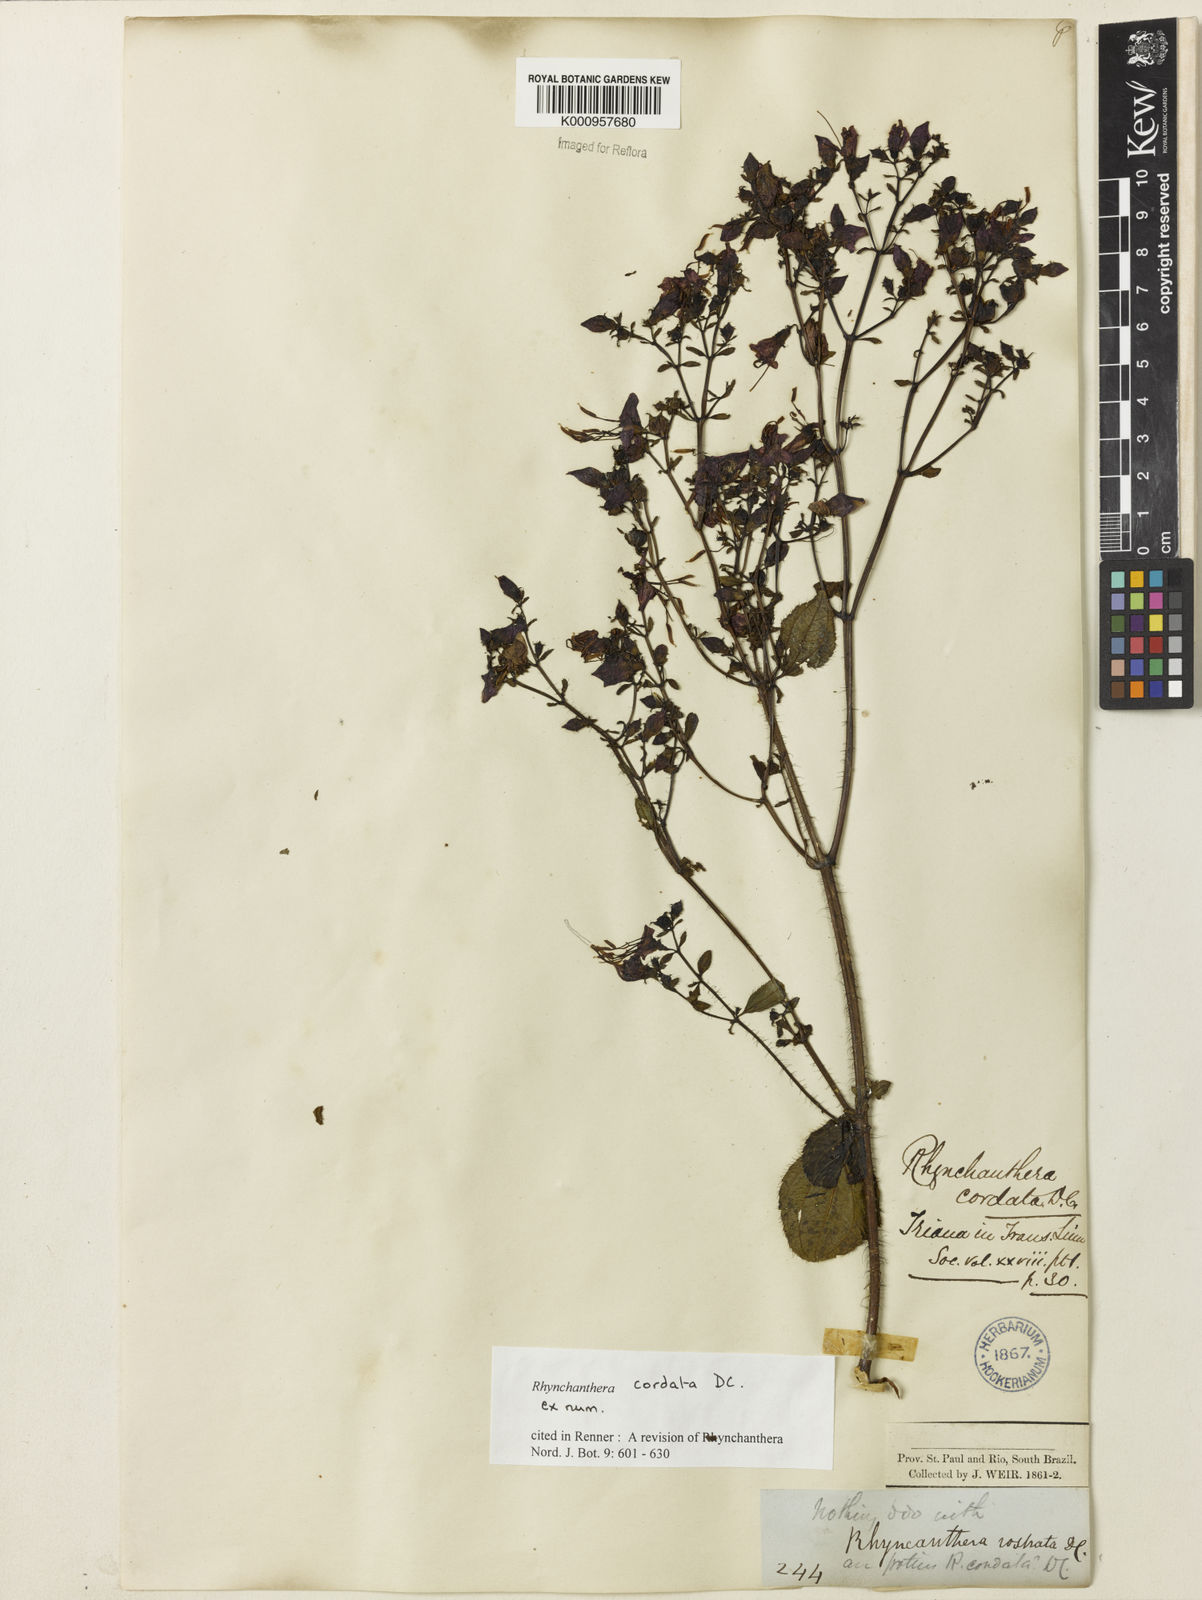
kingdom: Plantae
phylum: Tracheophyta
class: Magnoliopsida
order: Myrtales
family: Melastomataceae
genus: Rhynchanthera
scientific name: Rhynchanthera cordata
